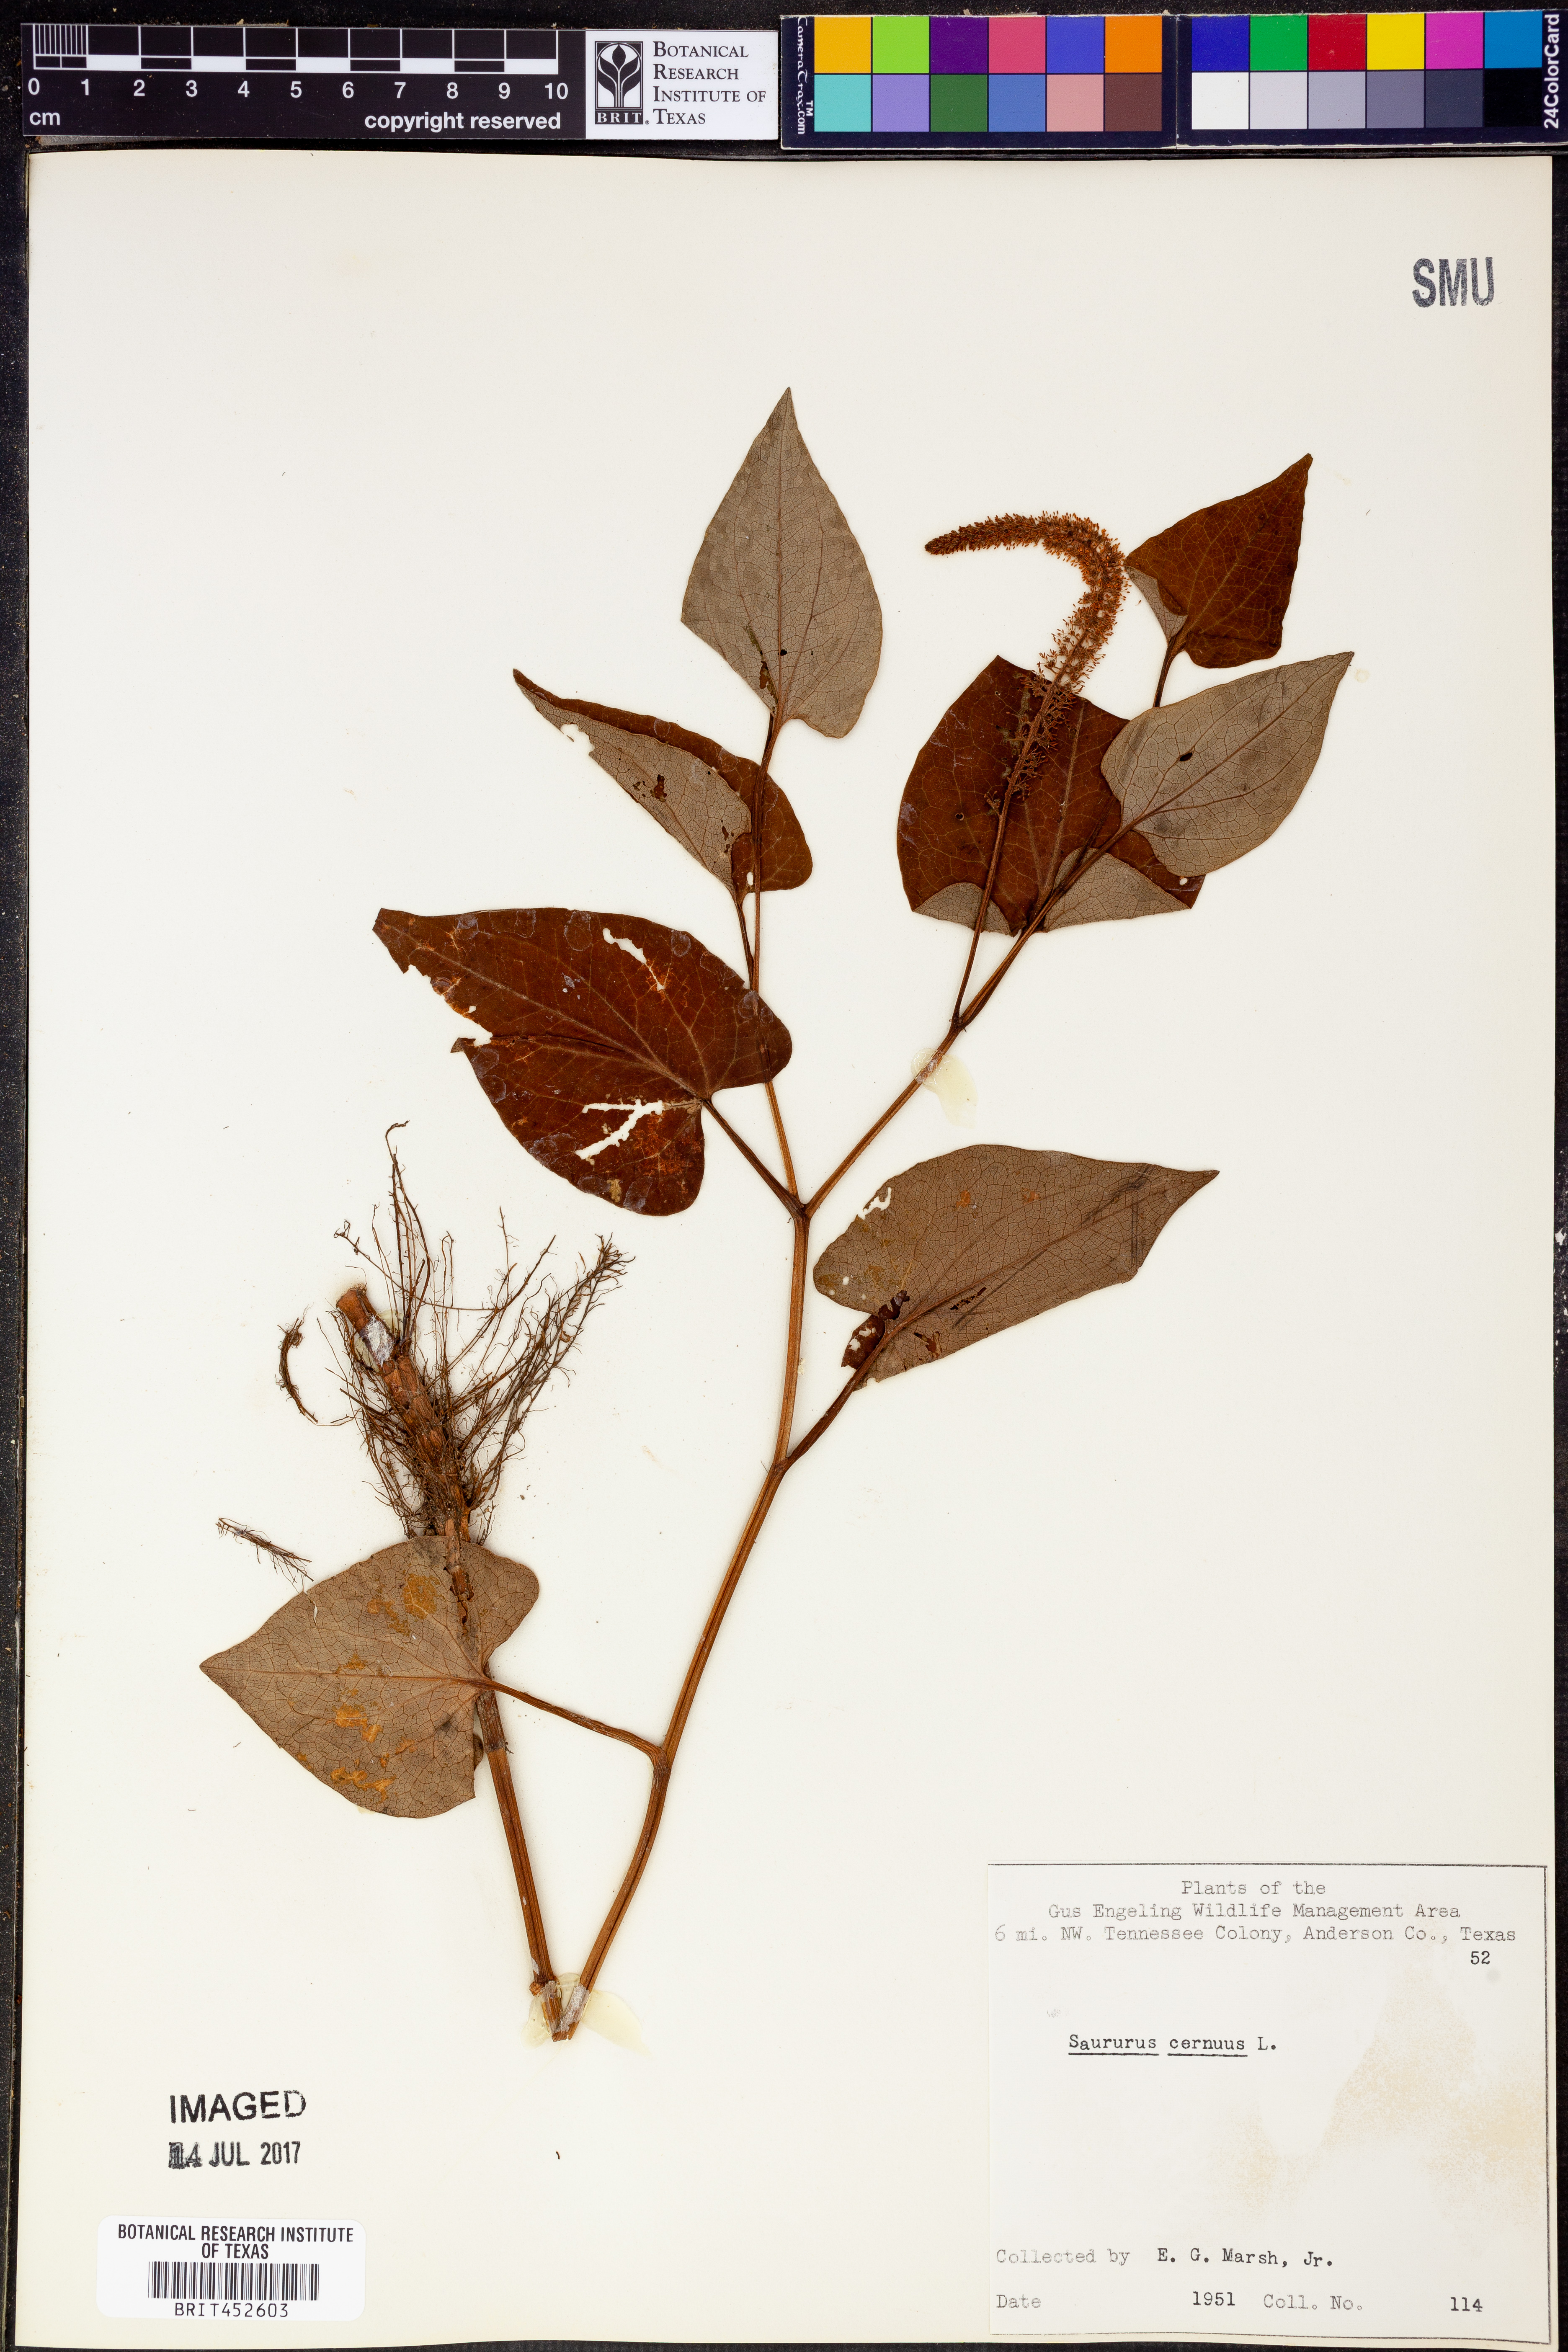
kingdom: Plantae
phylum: Tracheophyta
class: Magnoliopsida
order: Piperales
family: Saururaceae
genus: Saururus
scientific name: Saururus cernuus
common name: Lizard's-tail
